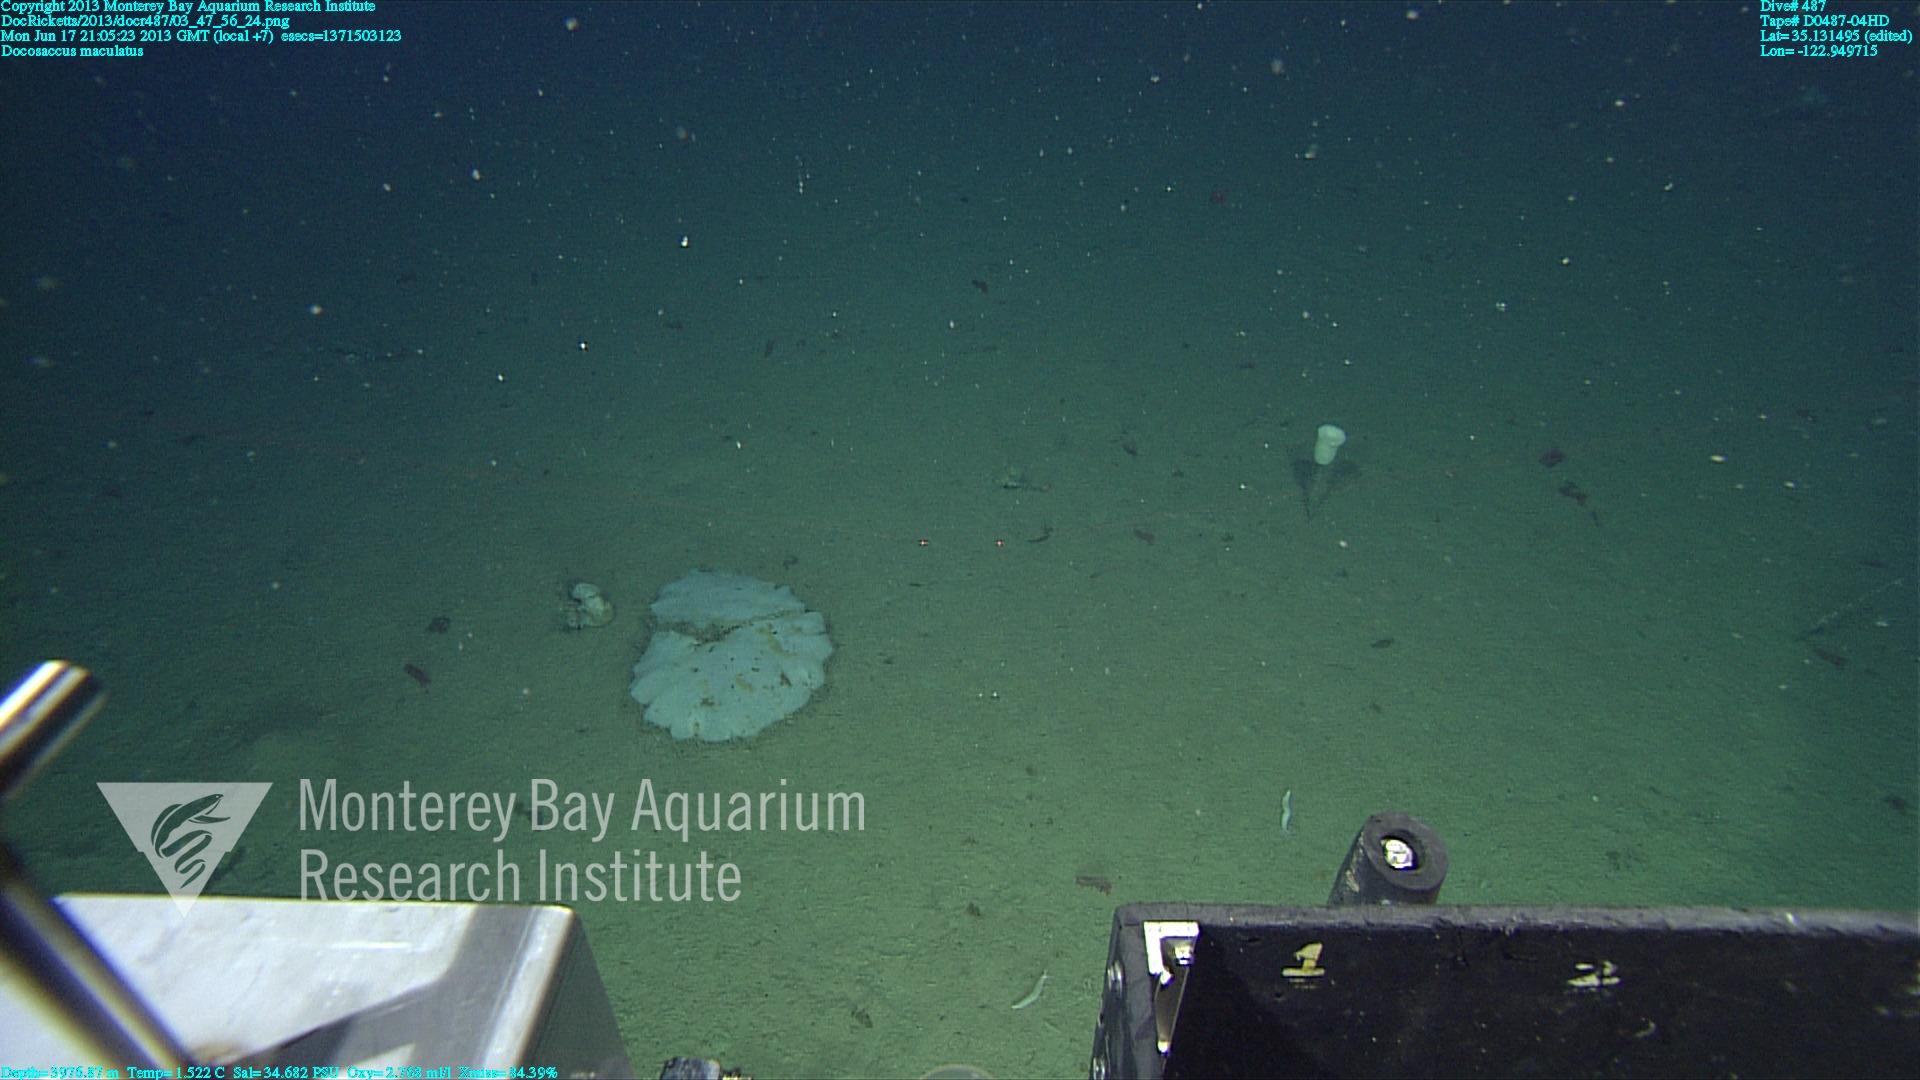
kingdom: Animalia
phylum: Porifera
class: Hexactinellida
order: Lyssacinosida
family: Euplectellidae
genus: Docosaccus
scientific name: Docosaccus maculatus
